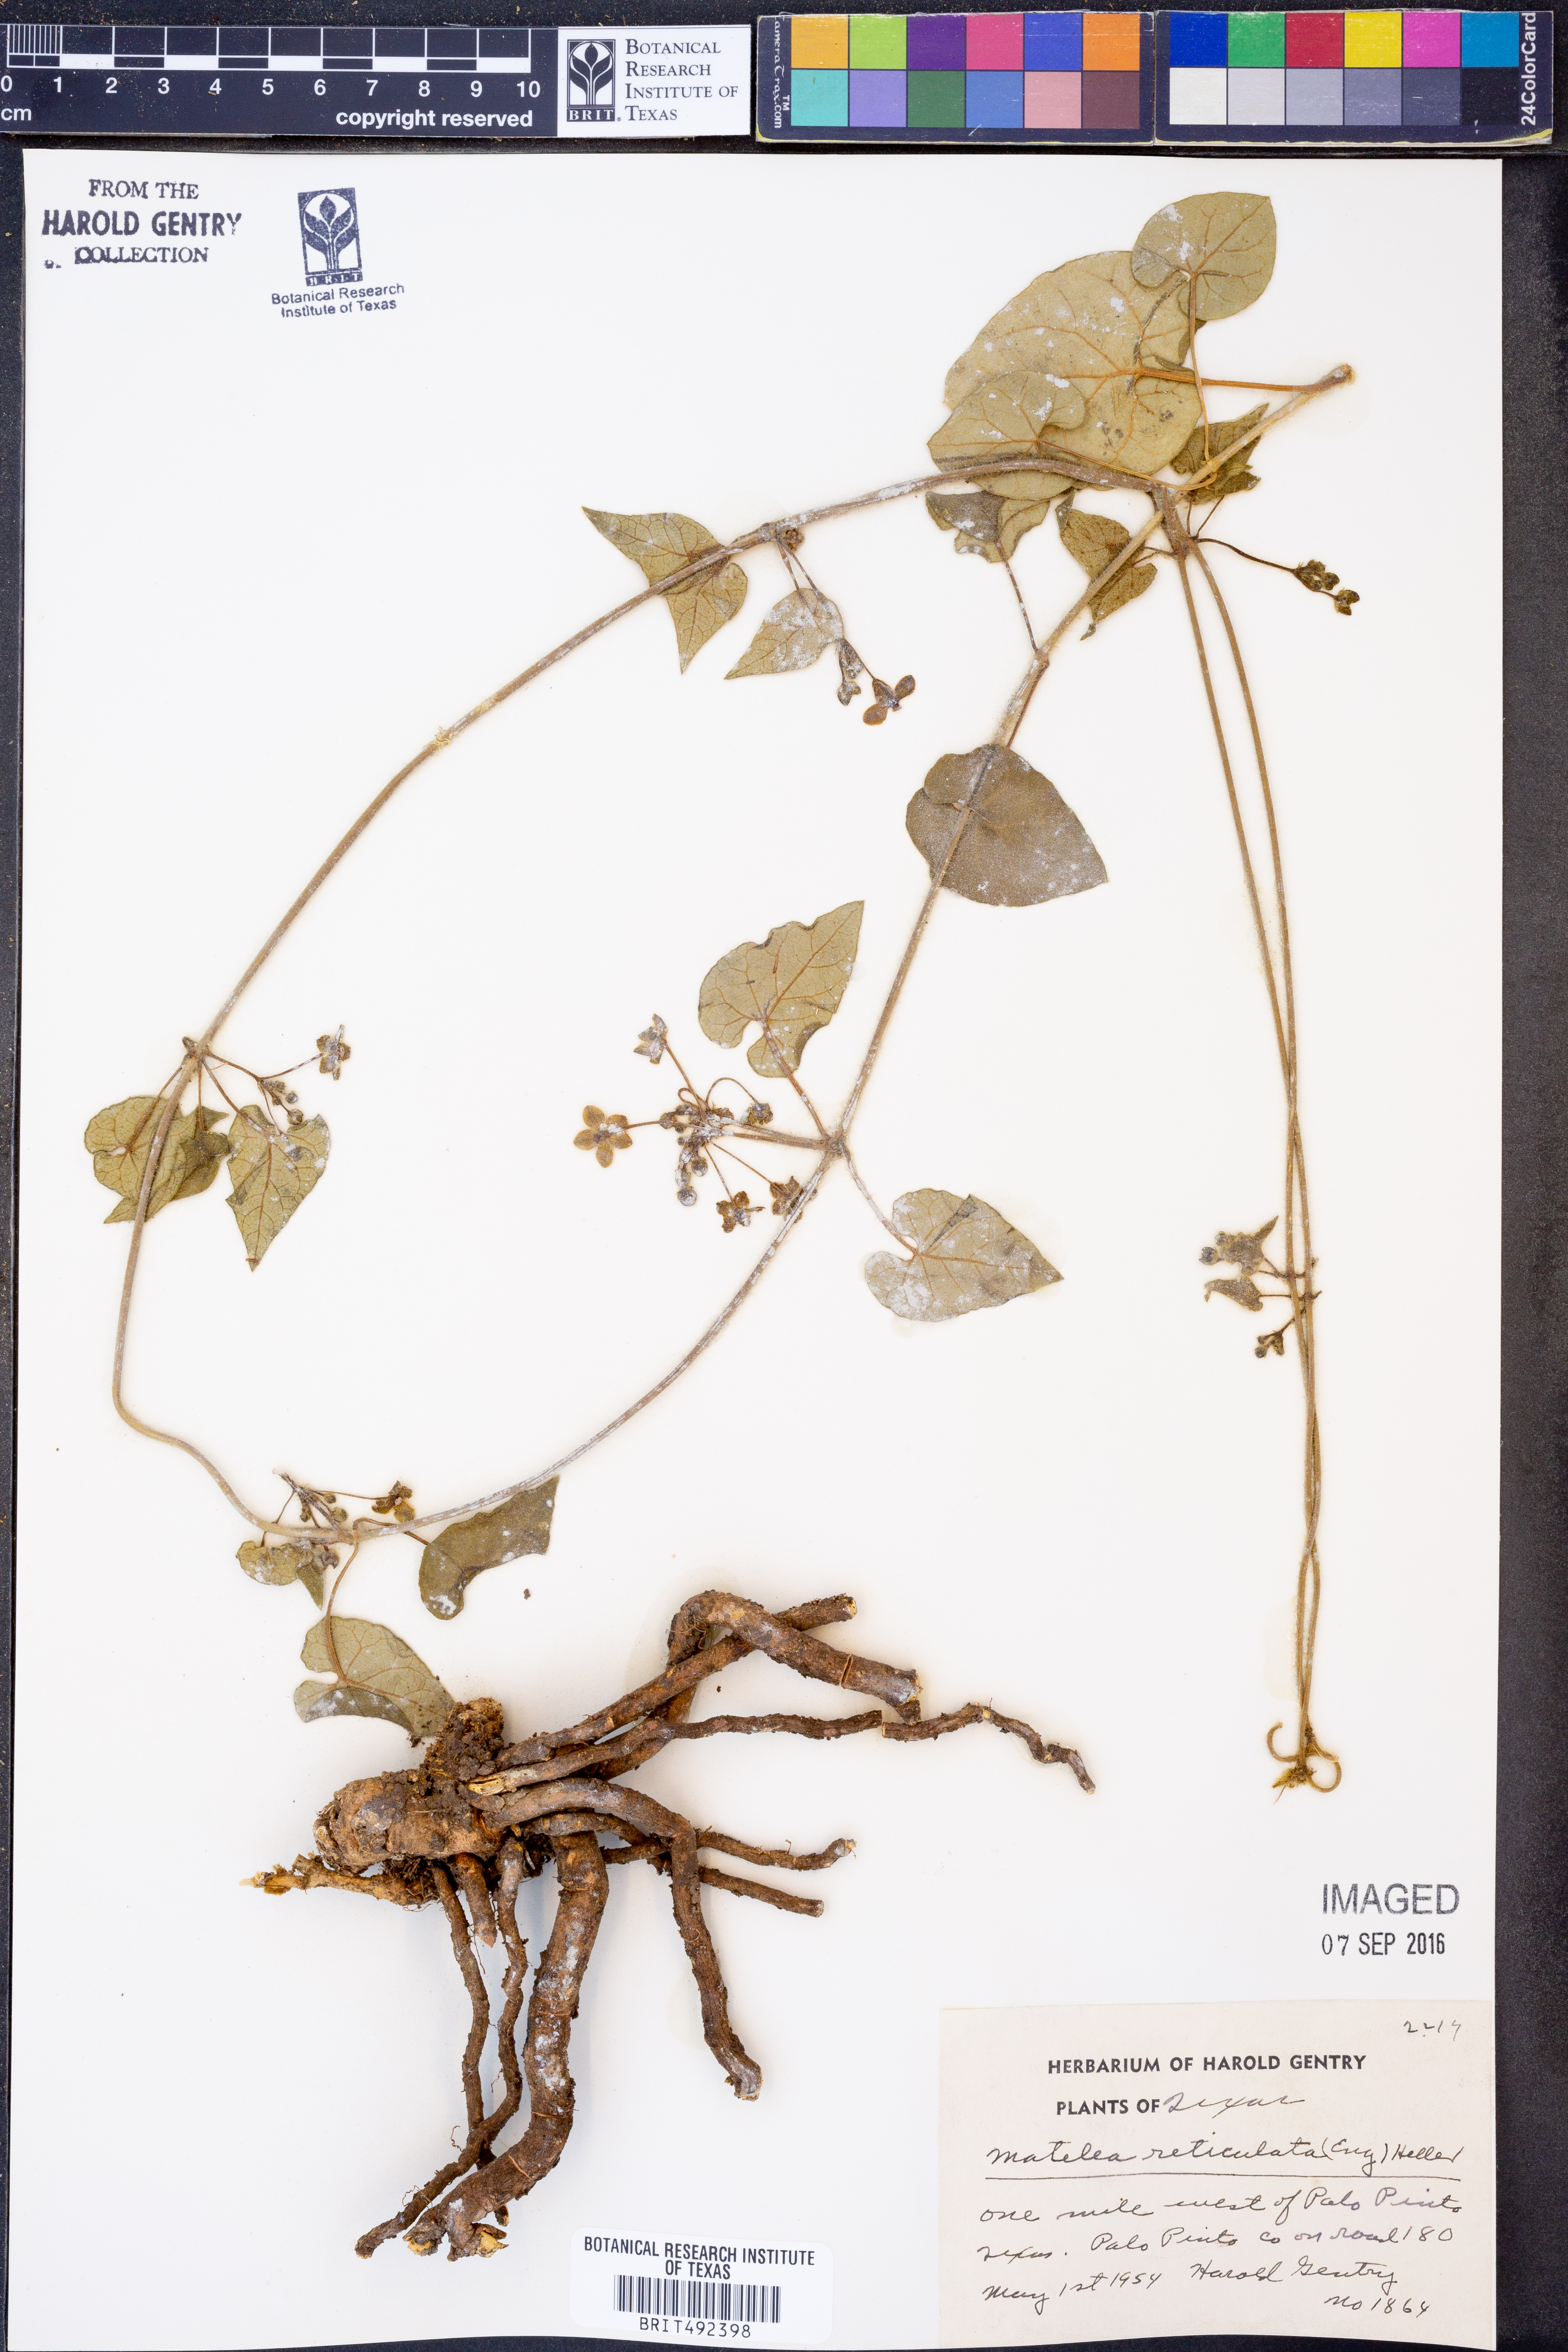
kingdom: Plantae
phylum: Tracheophyta
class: Magnoliopsida
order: Gentianales
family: Apocynaceae
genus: Dictyanthus
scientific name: Dictyanthus reticulatus
